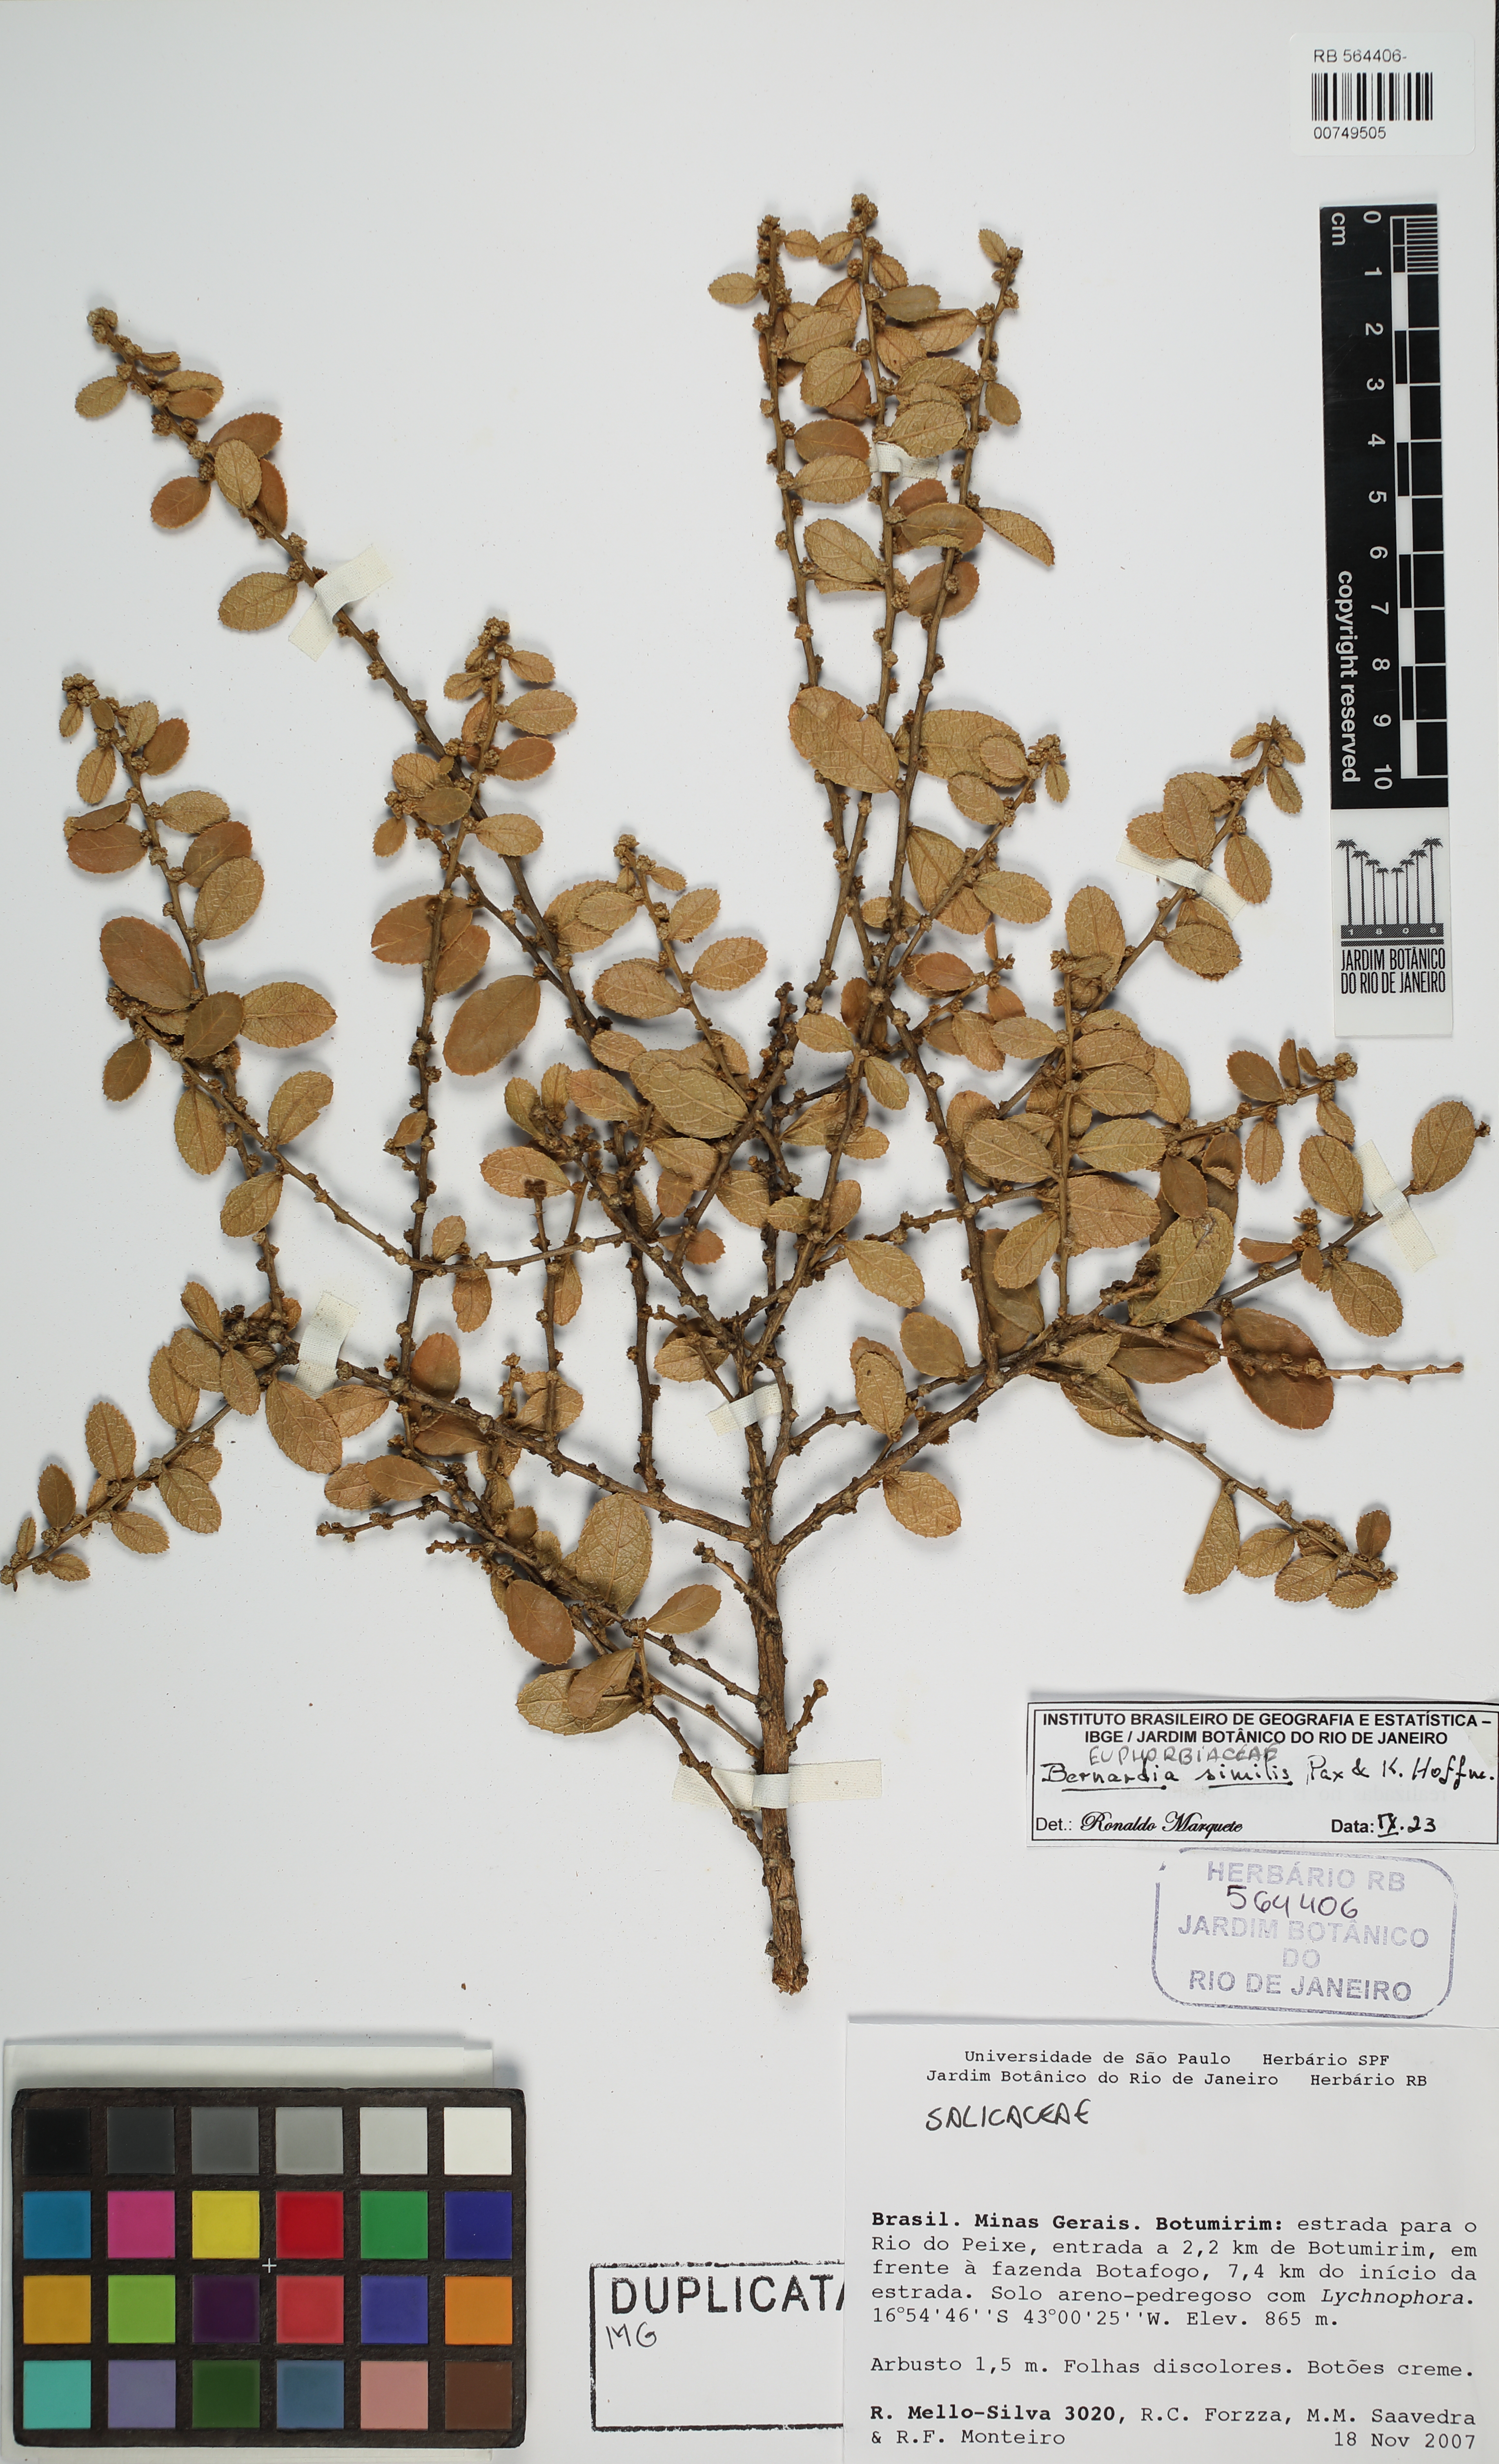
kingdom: Plantae
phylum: Tracheophyta
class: Magnoliopsida
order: Malpighiales
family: Euphorbiaceae
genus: Bernardia
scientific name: Bernardia similis
